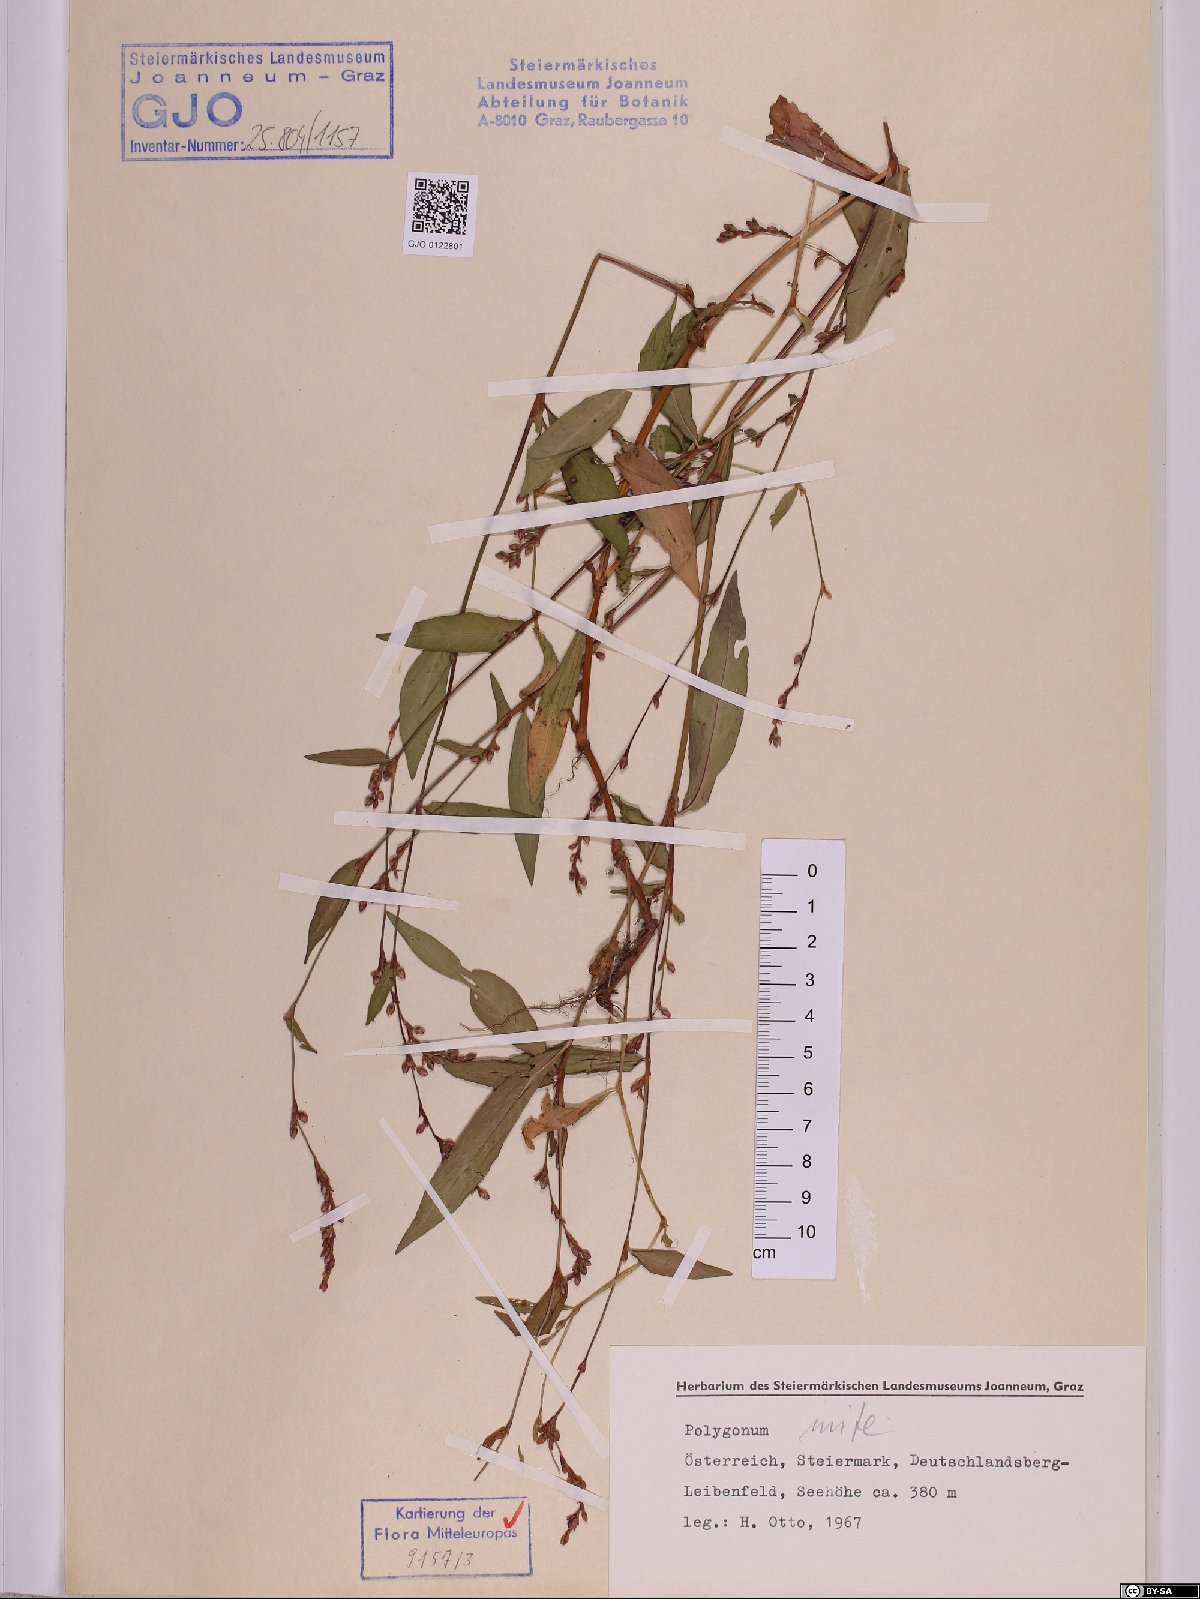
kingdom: Plantae
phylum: Tracheophyta
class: Magnoliopsida
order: Caryophyllales
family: Polygonaceae
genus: Persicaria
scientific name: Persicaria mitis
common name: Tasteless water-pepper
